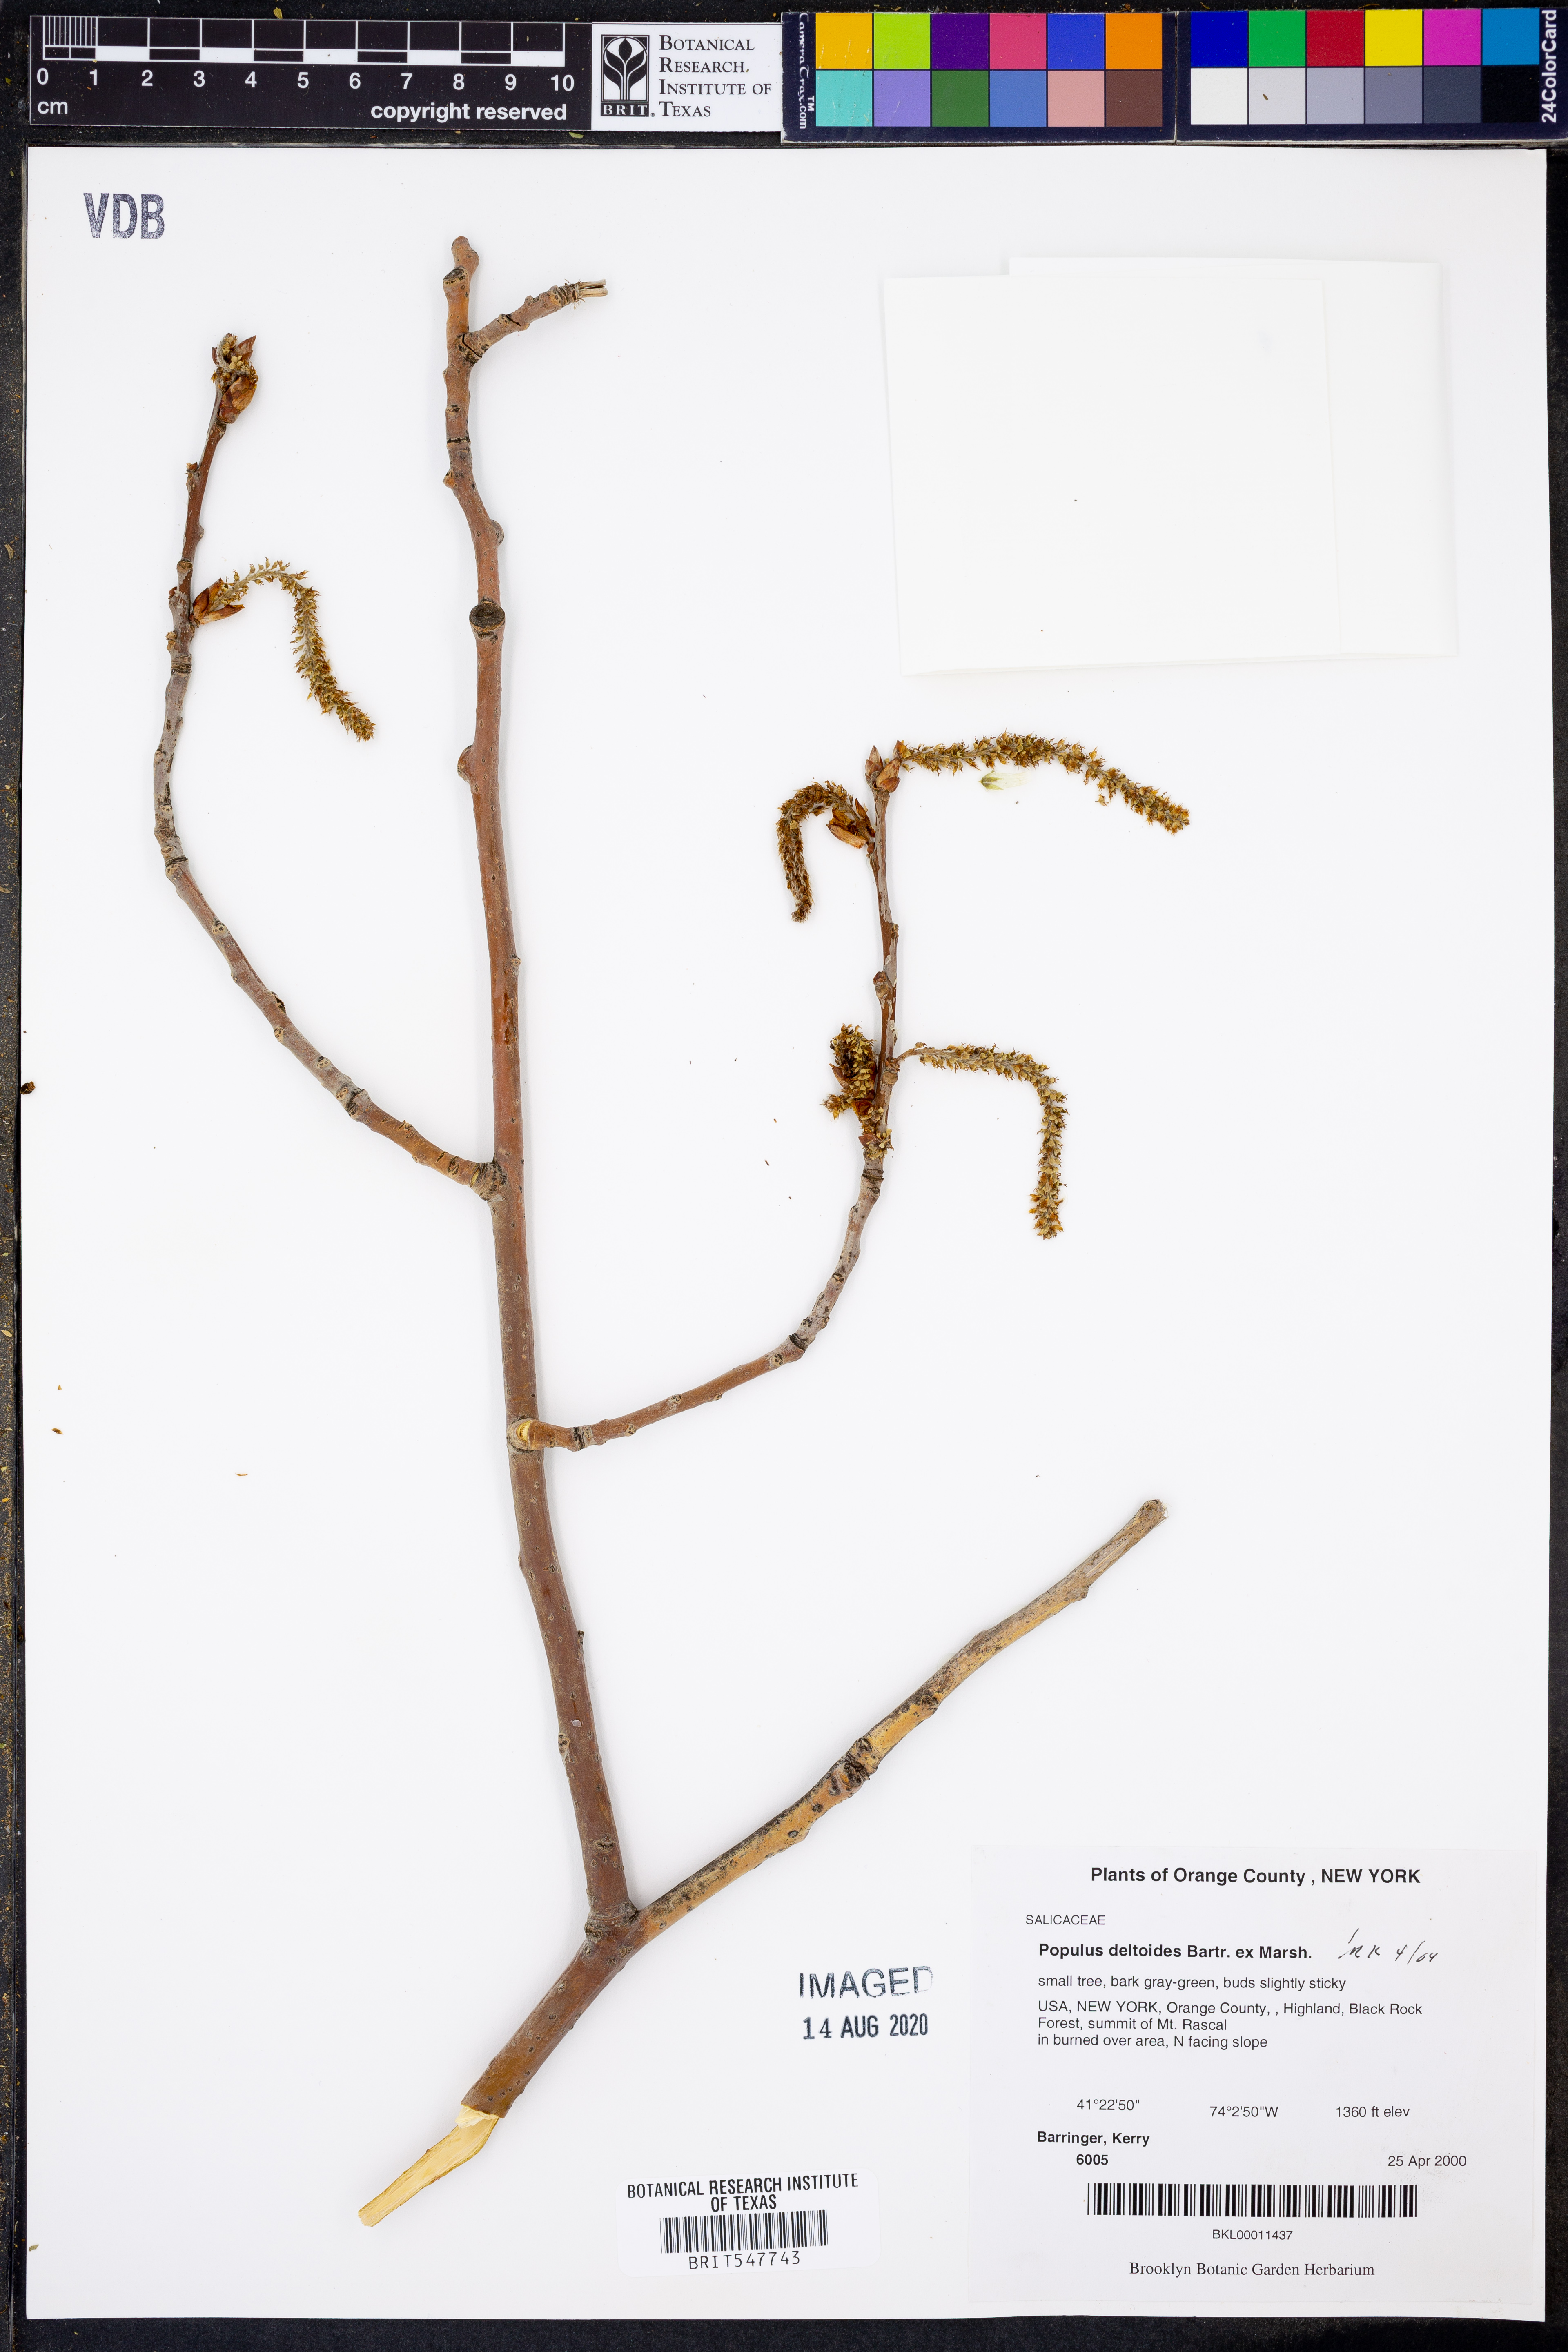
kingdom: Plantae
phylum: Tracheophyta
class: Magnoliopsida
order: Malpighiales
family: Salicaceae
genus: Populus
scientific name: Populus deltoides
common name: Eastern cottonwood
